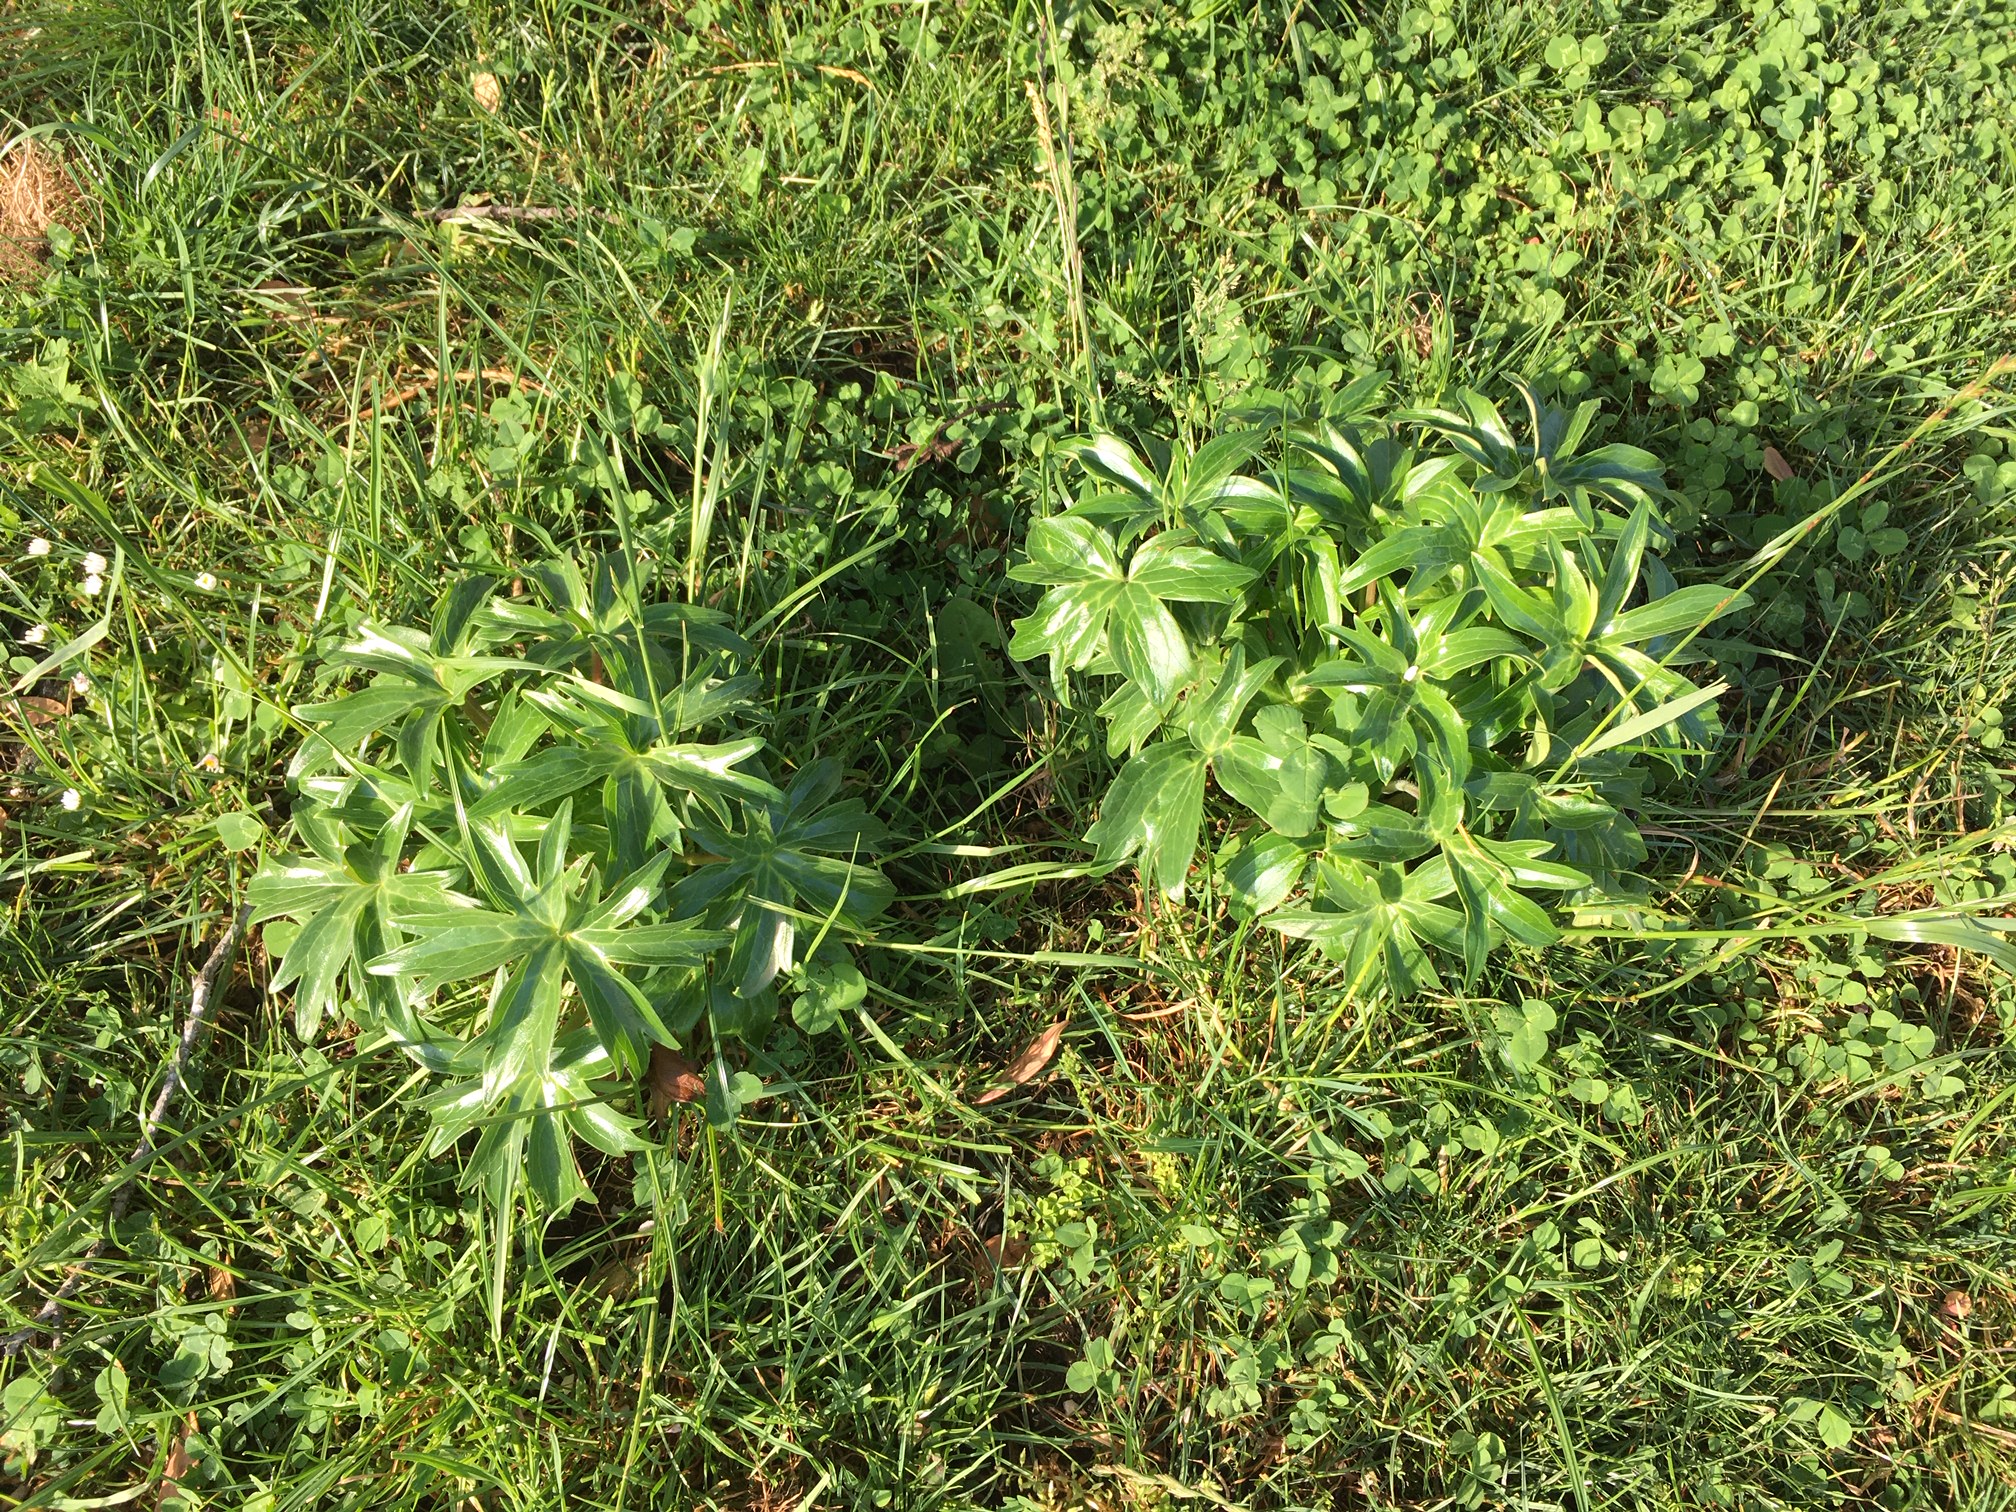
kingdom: Plantae
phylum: Tracheophyta
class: Magnoliopsida
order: Ranunculales
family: Ranunculaceae
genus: Staphisagria
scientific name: Staphisagria macrosperma
